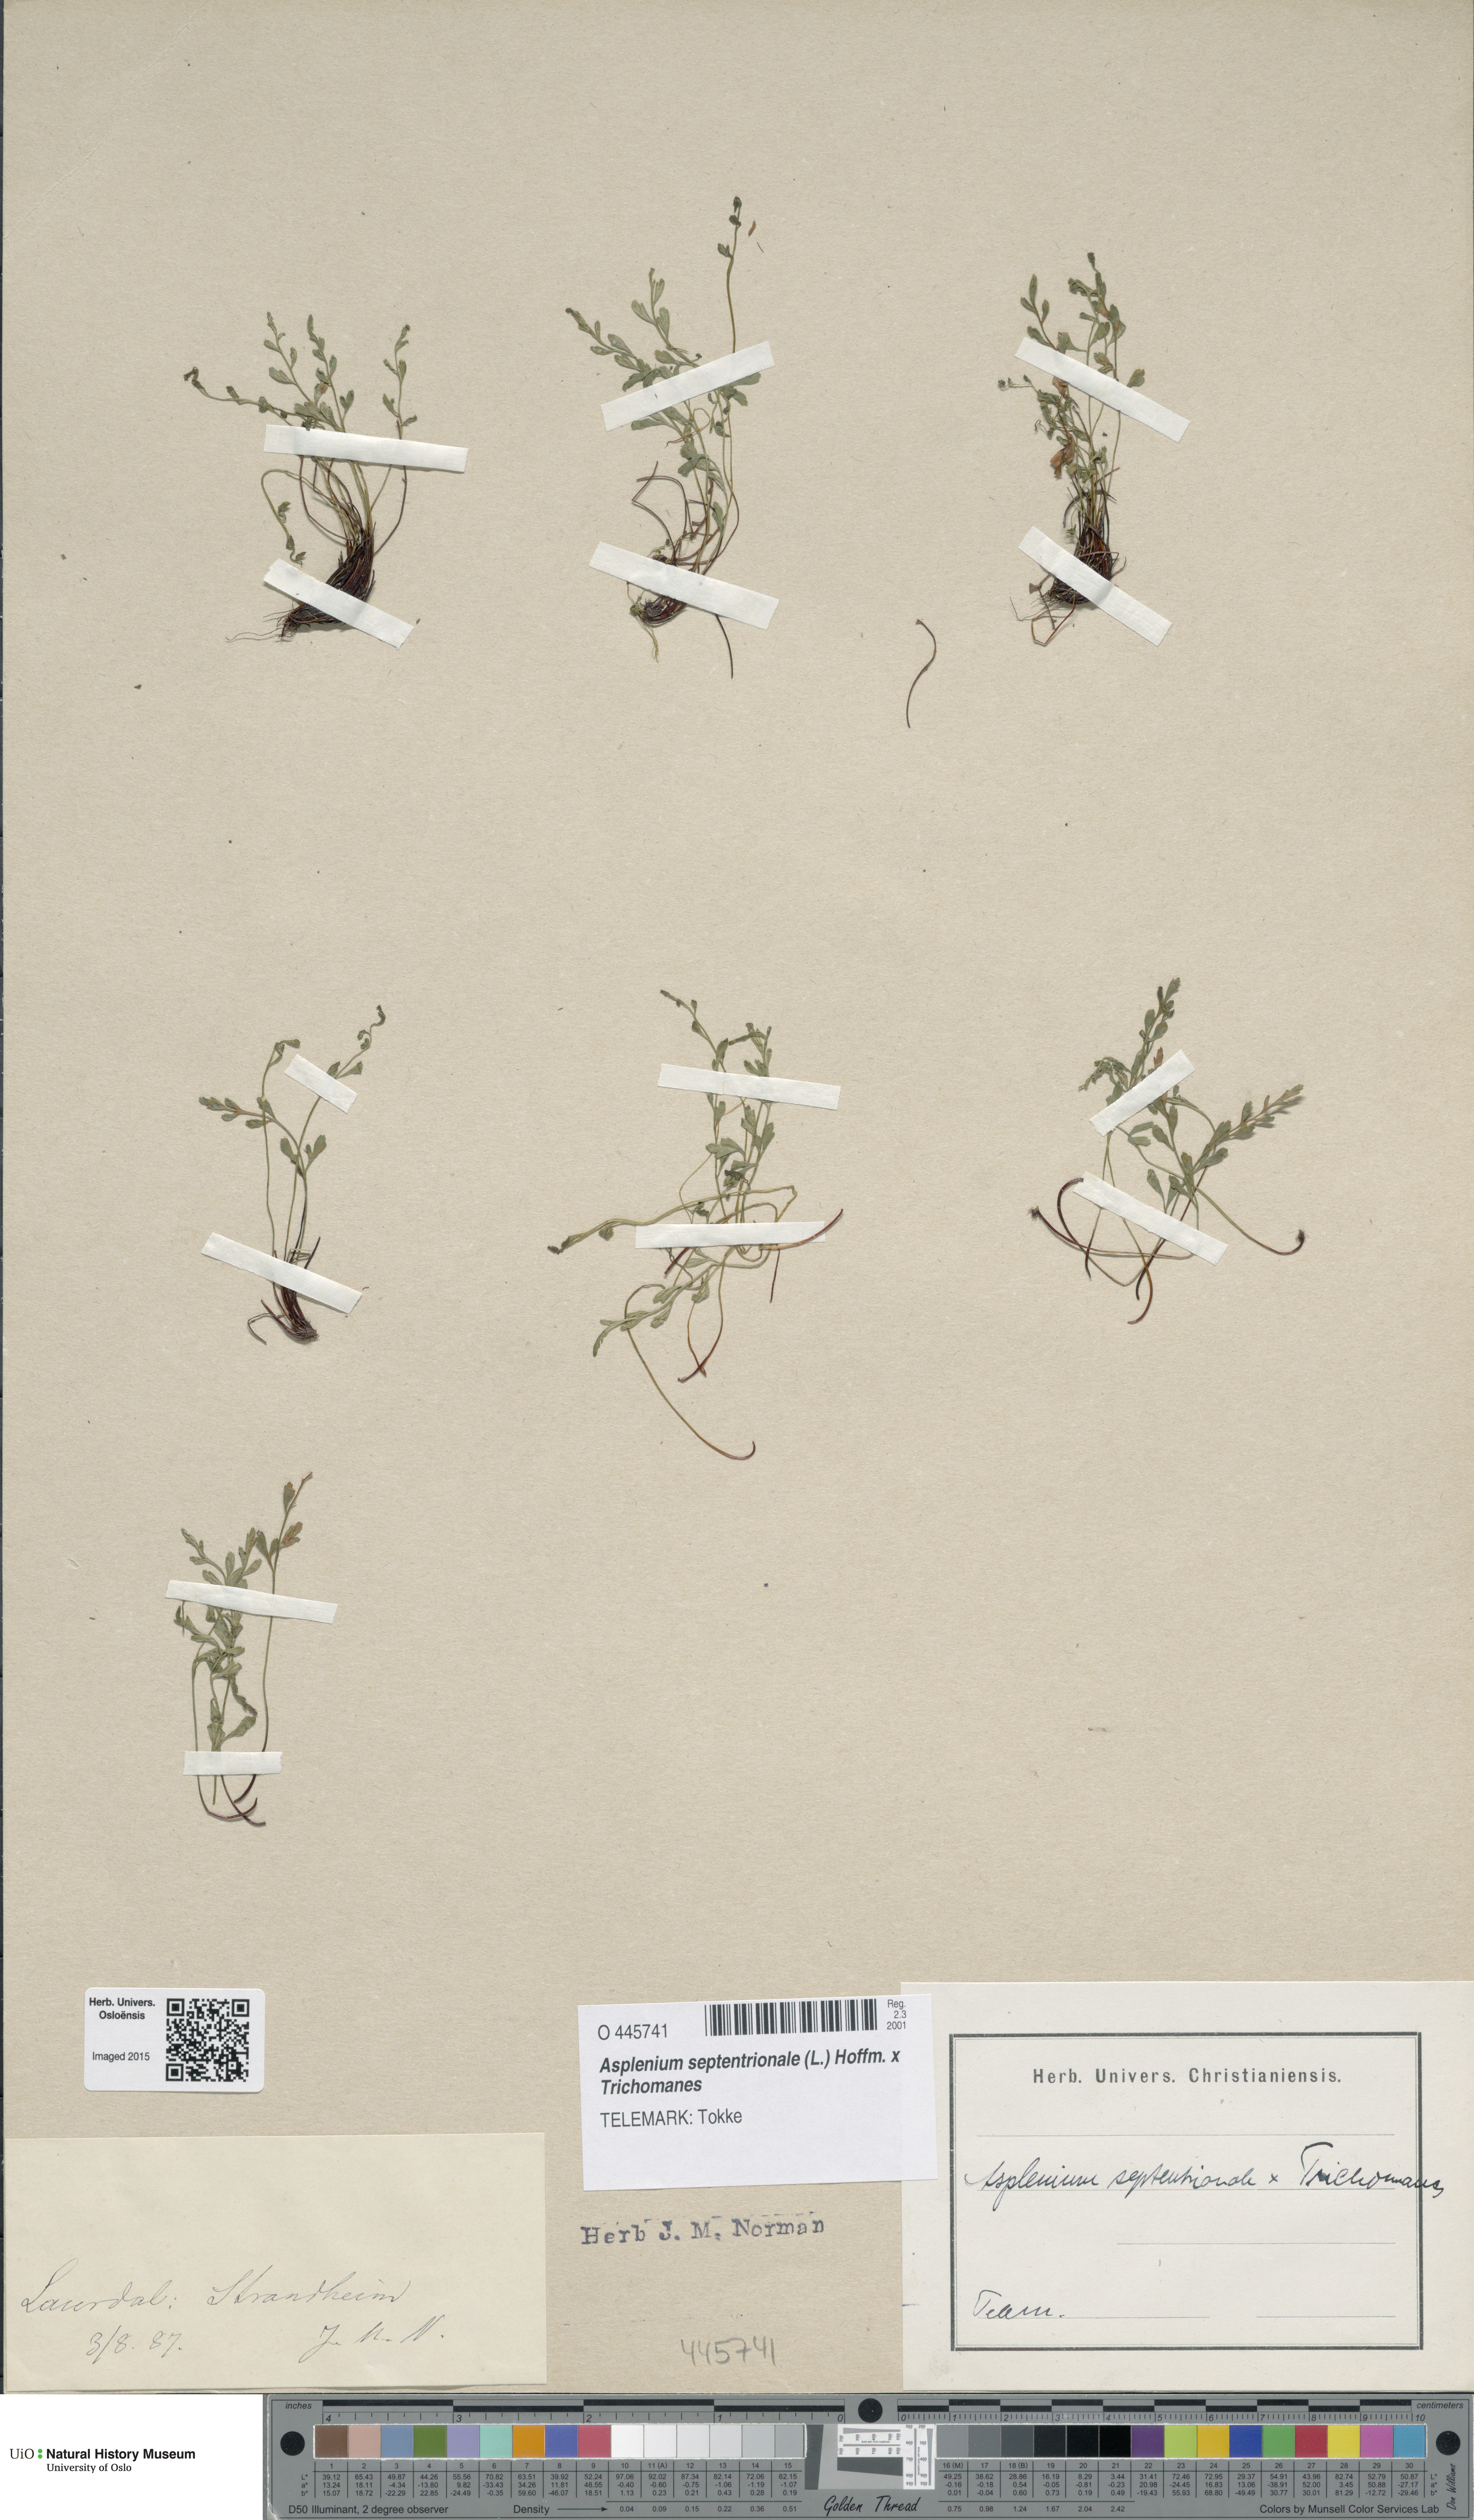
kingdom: Plantae
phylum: Tracheophyta
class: Polypodiopsida
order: Polypodiales
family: Aspleniaceae
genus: Asplenium
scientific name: Asplenium
